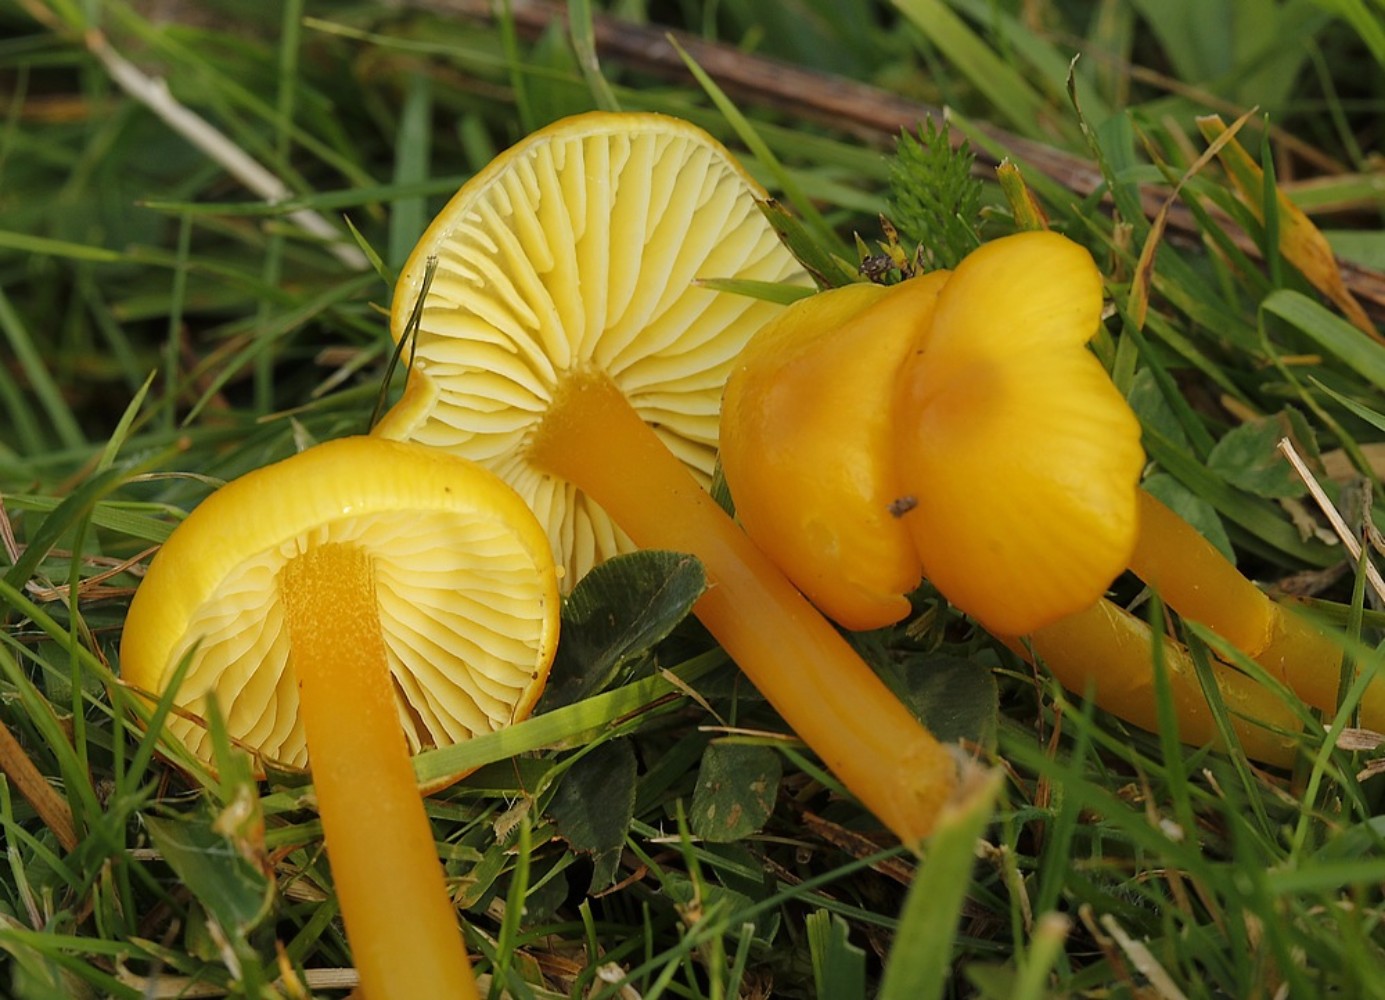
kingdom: Fungi
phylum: Basidiomycota
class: Agaricomycetes
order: Agaricales
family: Hygrophoraceae
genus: Hygrocybe
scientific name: Hygrocybe chlorophana
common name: gul vokshat
